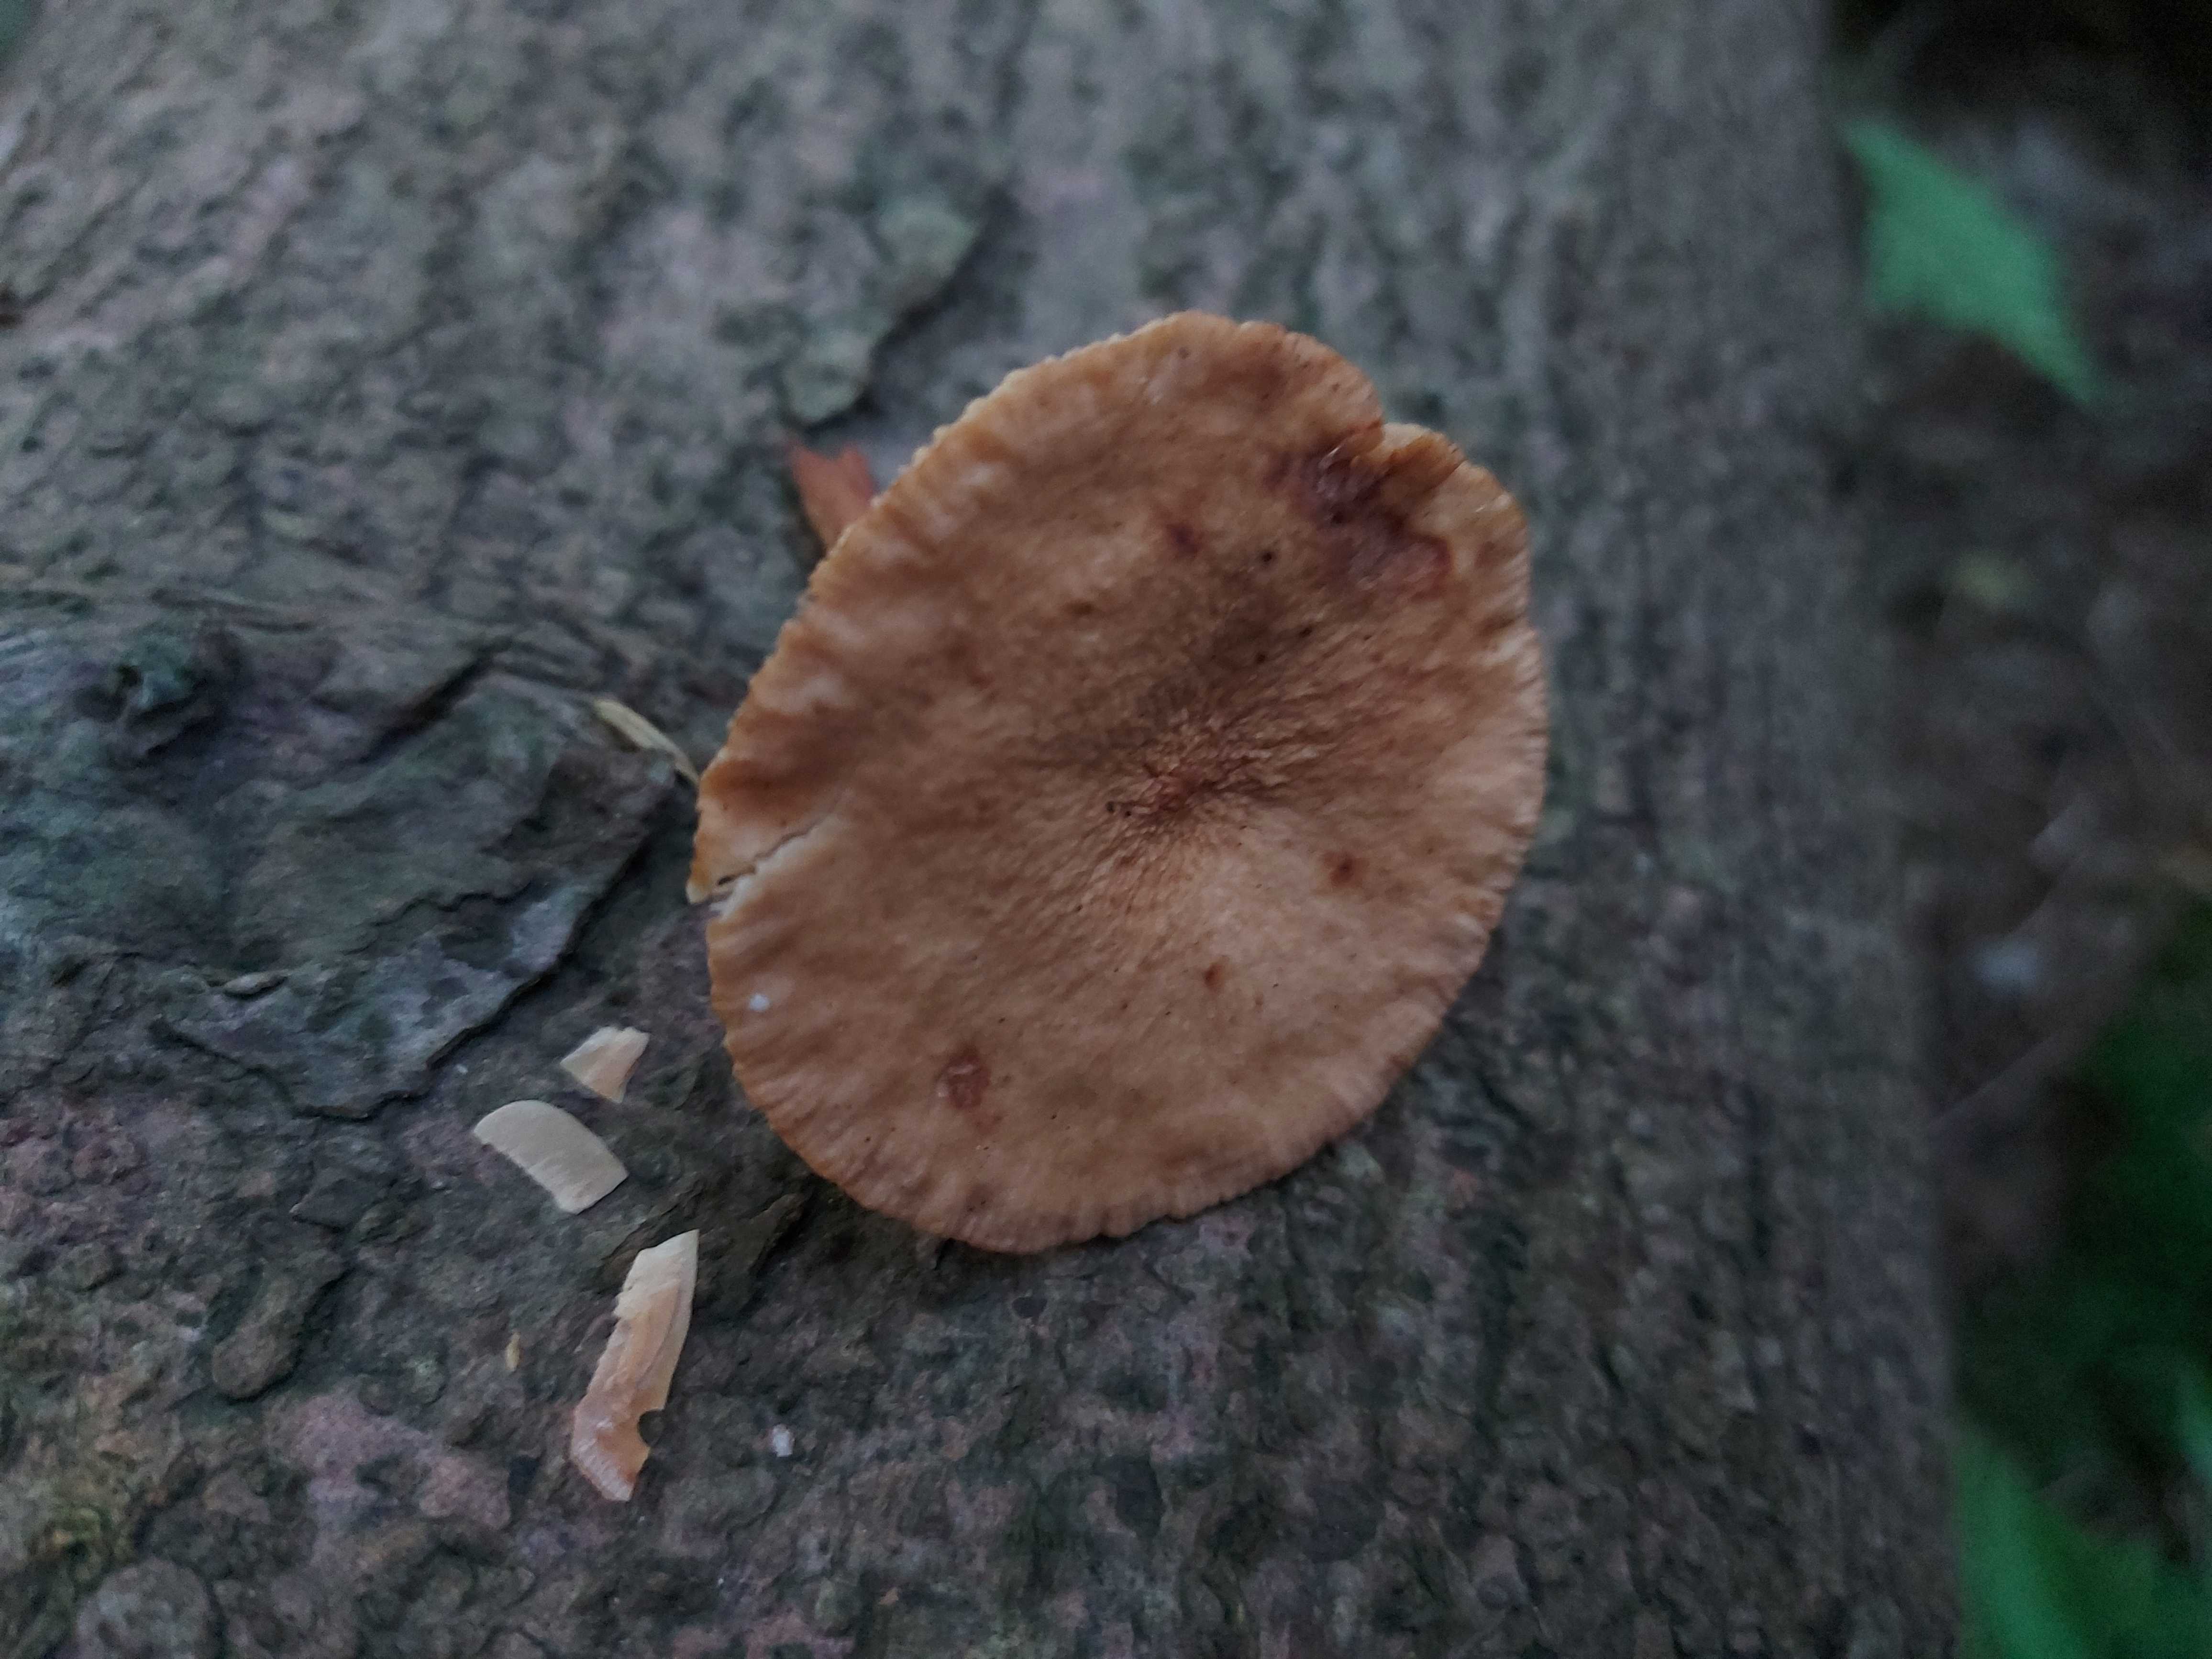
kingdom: Fungi
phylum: Basidiomycota
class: Agaricomycetes
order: Russulales
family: Russulaceae
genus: Lactarius
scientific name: Lactarius tabidus
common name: rynket mælkehat
